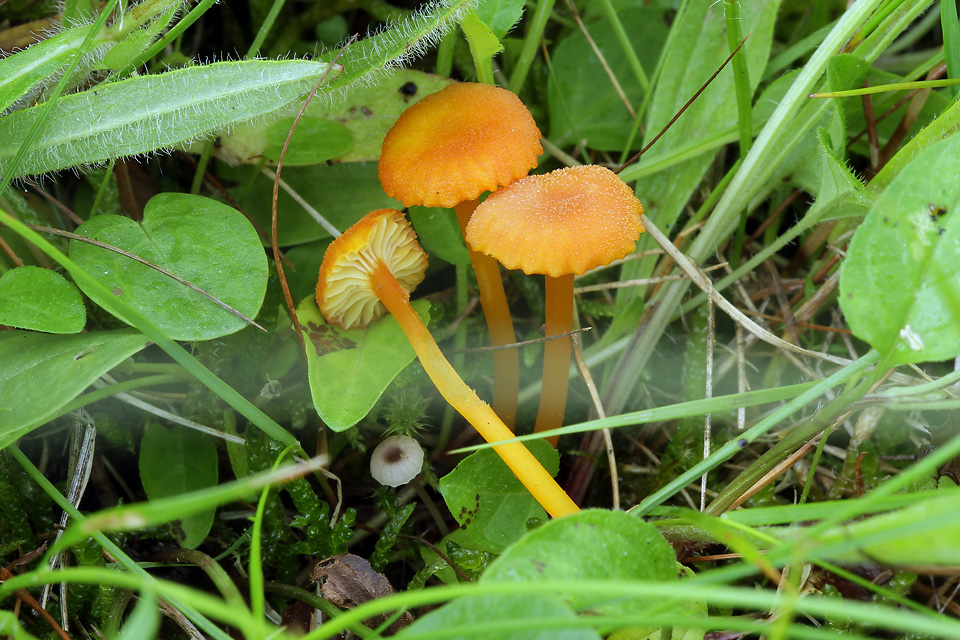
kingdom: Fungi
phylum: Basidiomycota
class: Agaricomycetes
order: Agaricales
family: Hygrophoraceae
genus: Hygrocybe
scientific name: Hygrocybe miniata
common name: mønje-vokshat
